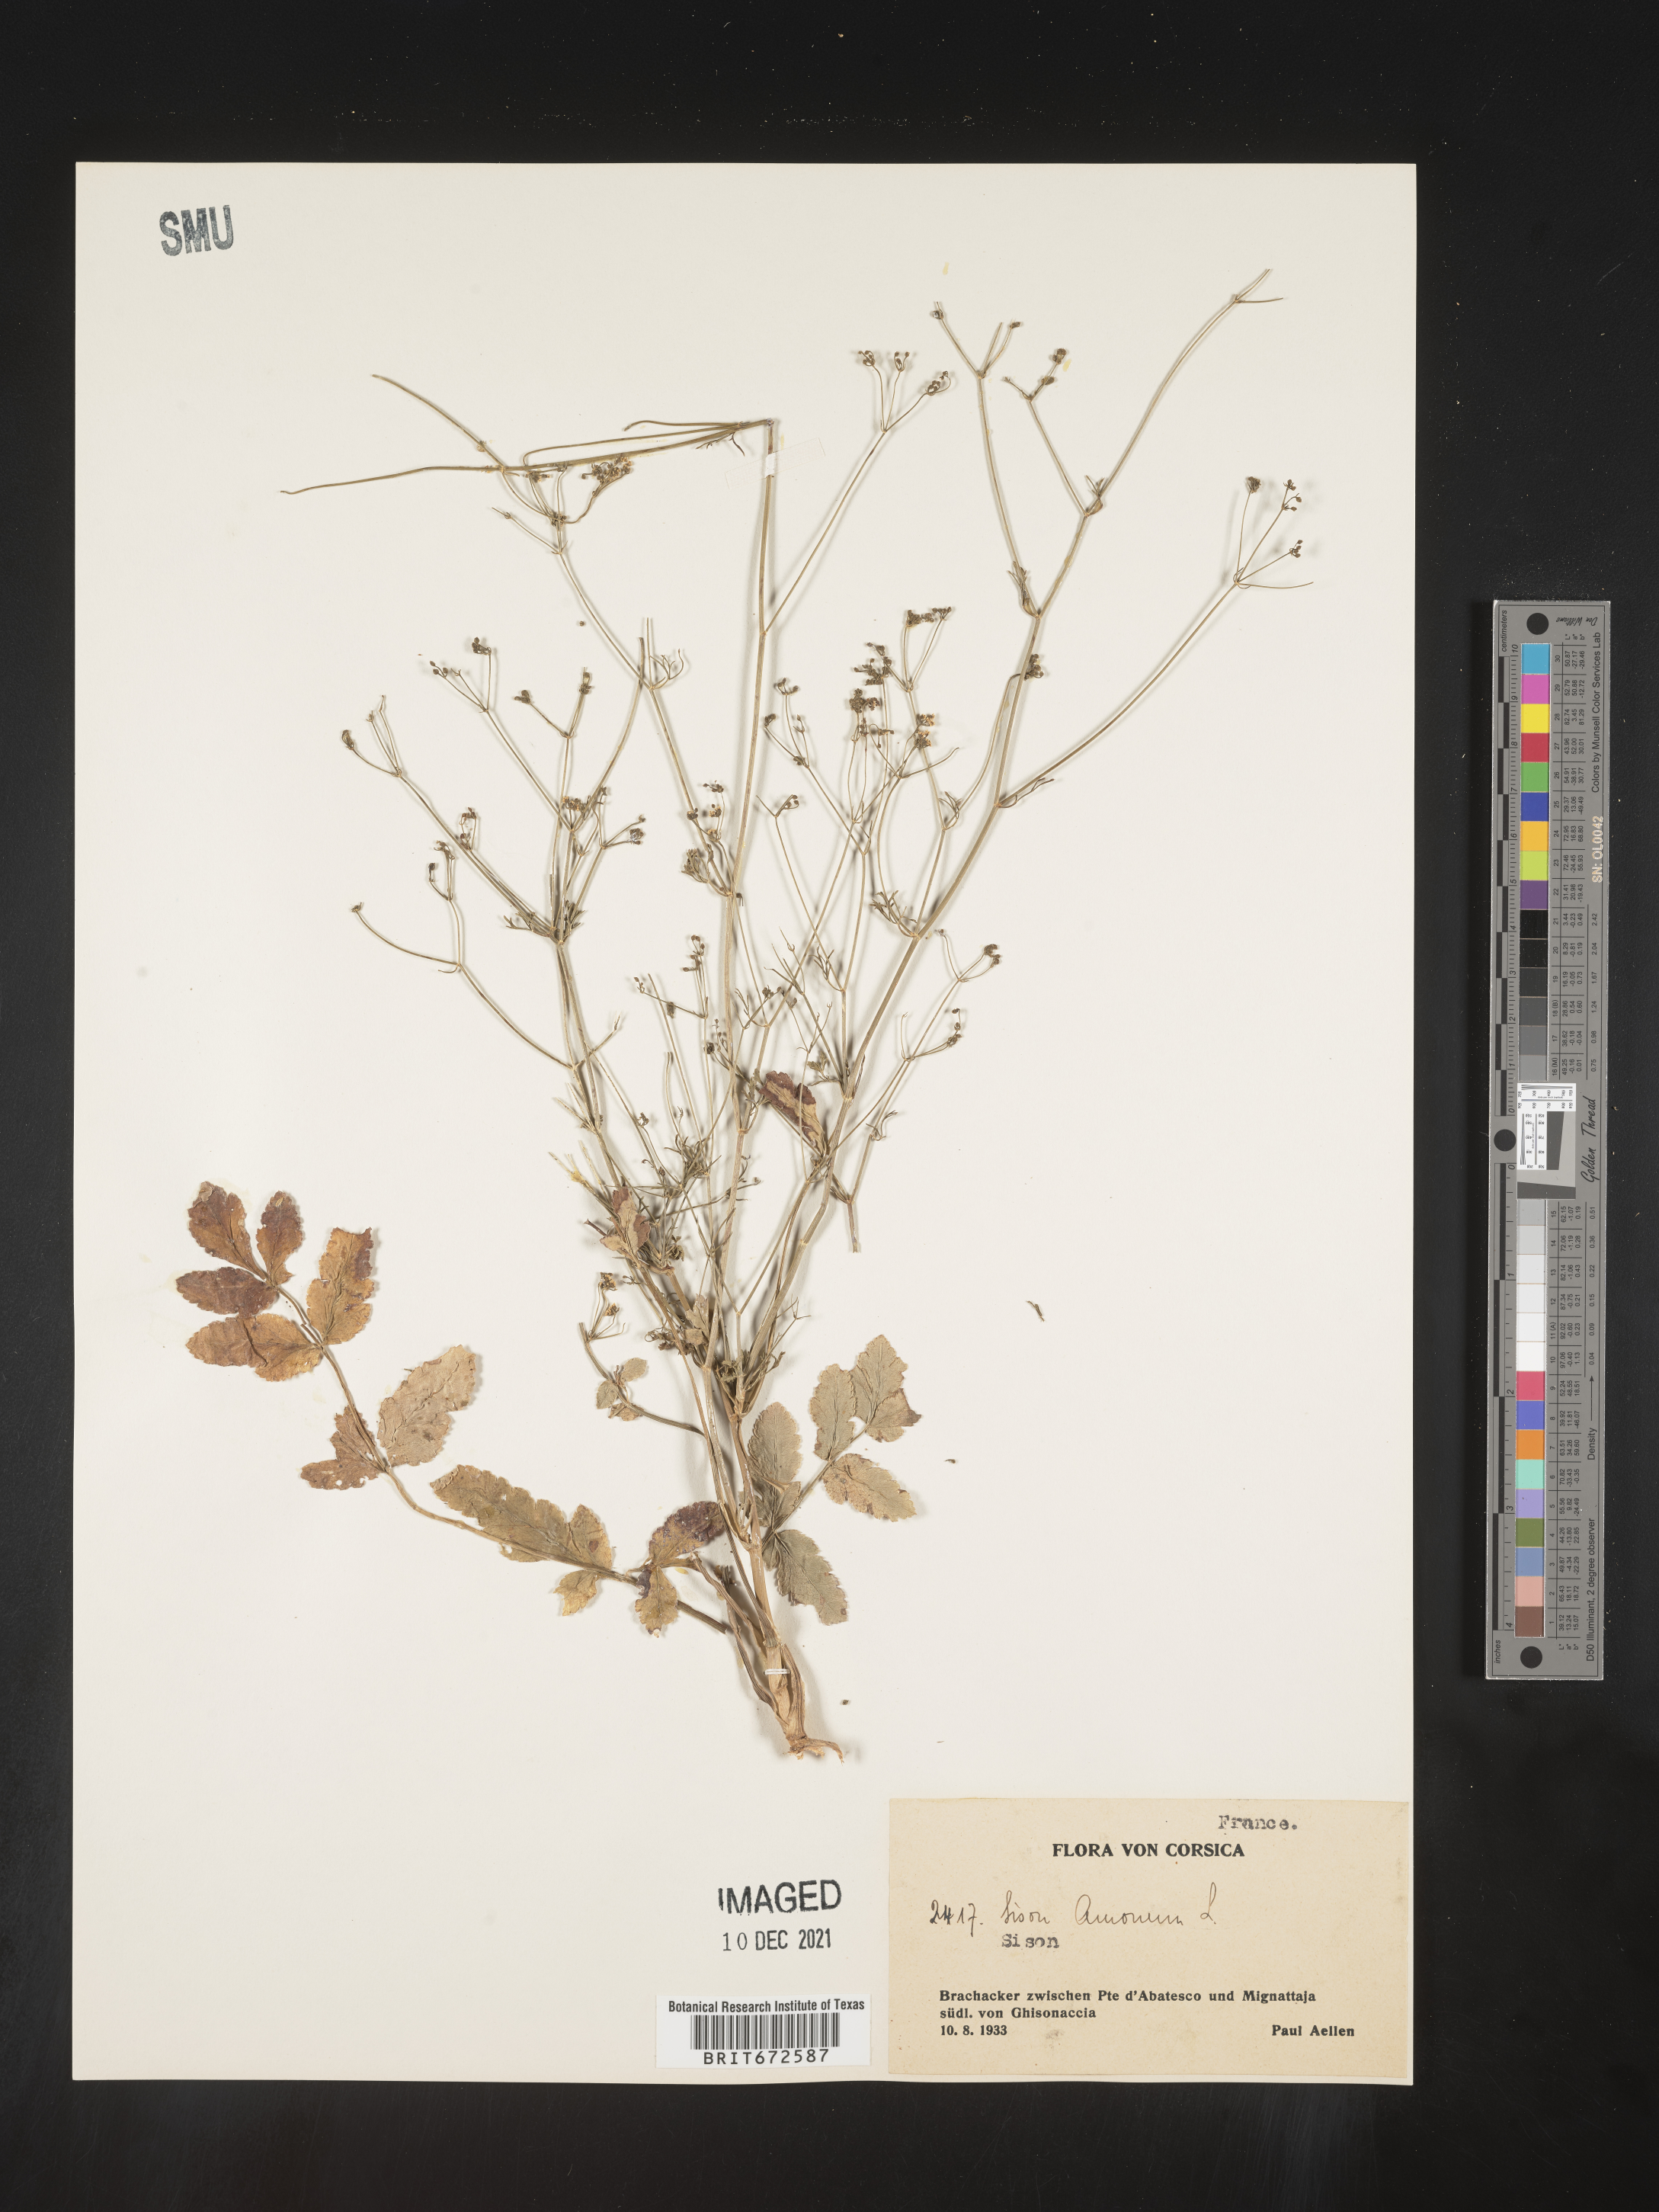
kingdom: Plantae
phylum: Tracheophyta
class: Magnoliopsida
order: Apiales
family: Apiaceae
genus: Sison
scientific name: Sison amomum
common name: Stone-parsley
